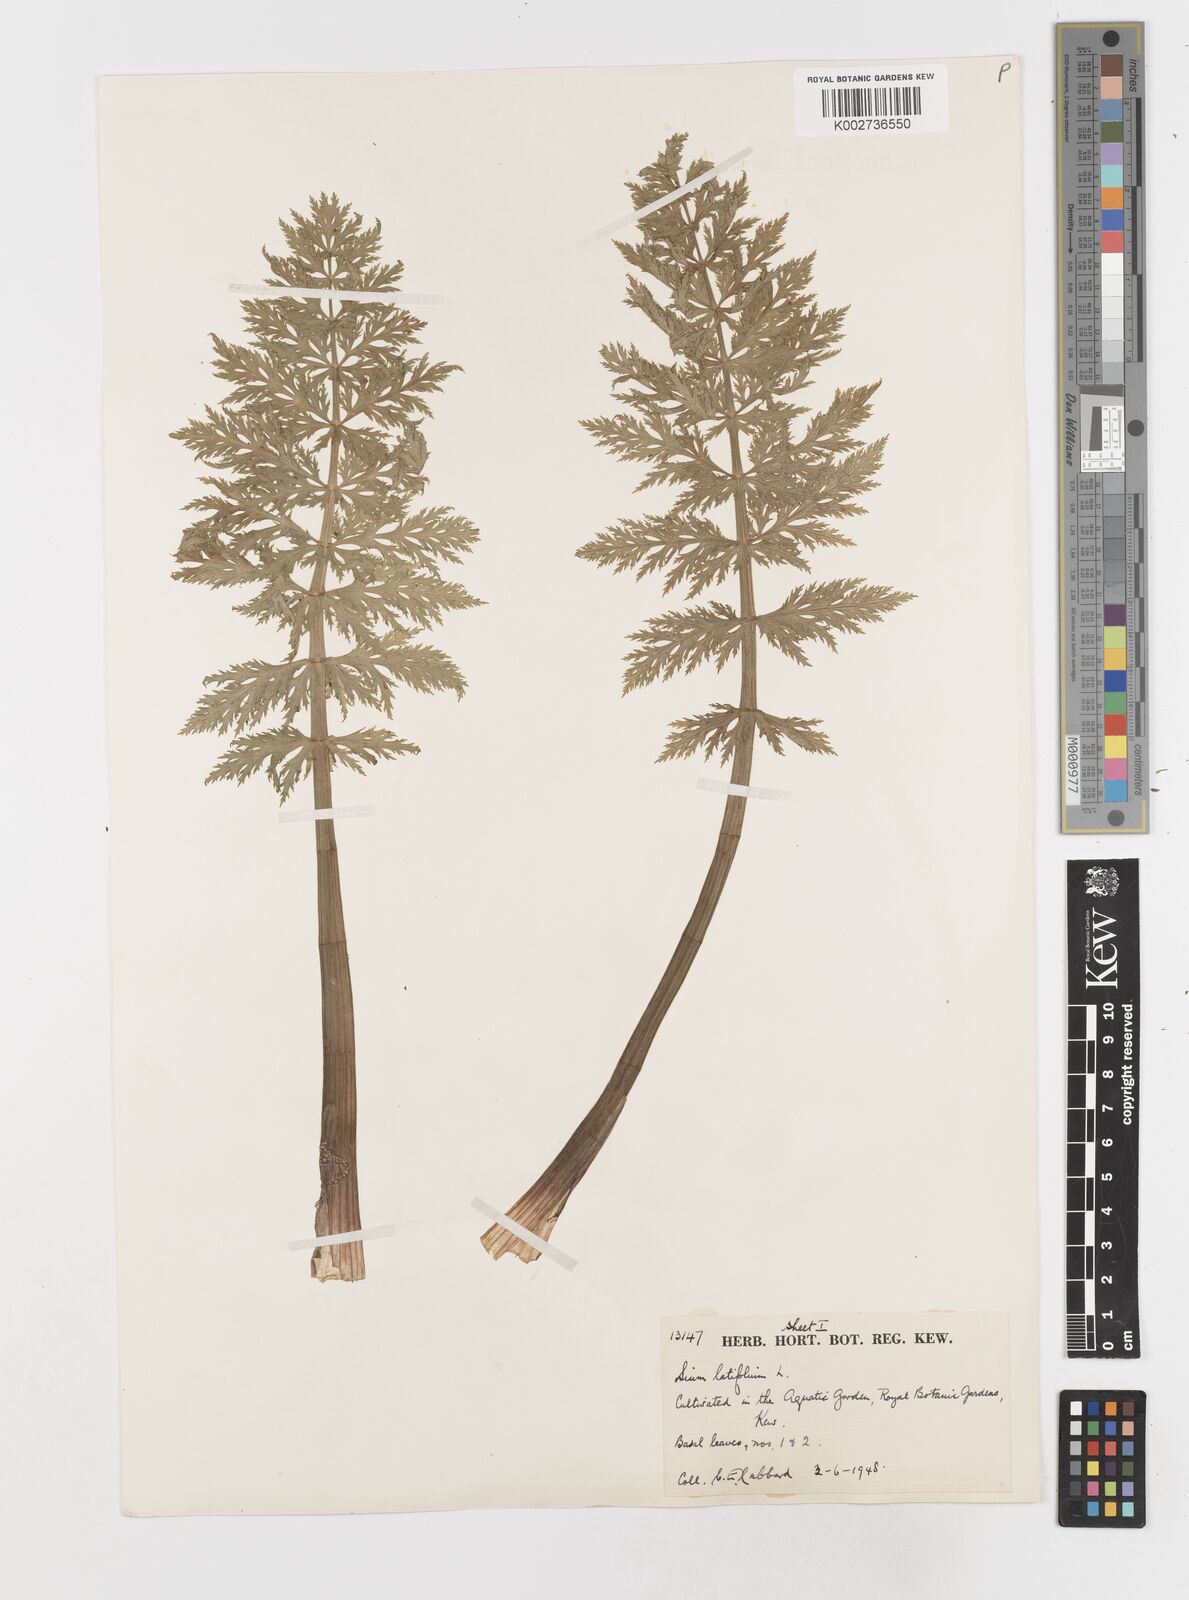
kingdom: Plantae
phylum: Tracheophyta
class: Magnoliopsida
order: Apiales
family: Apiaceae
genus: Sium
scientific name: Sium latifolium
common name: Greater water-parsnip
